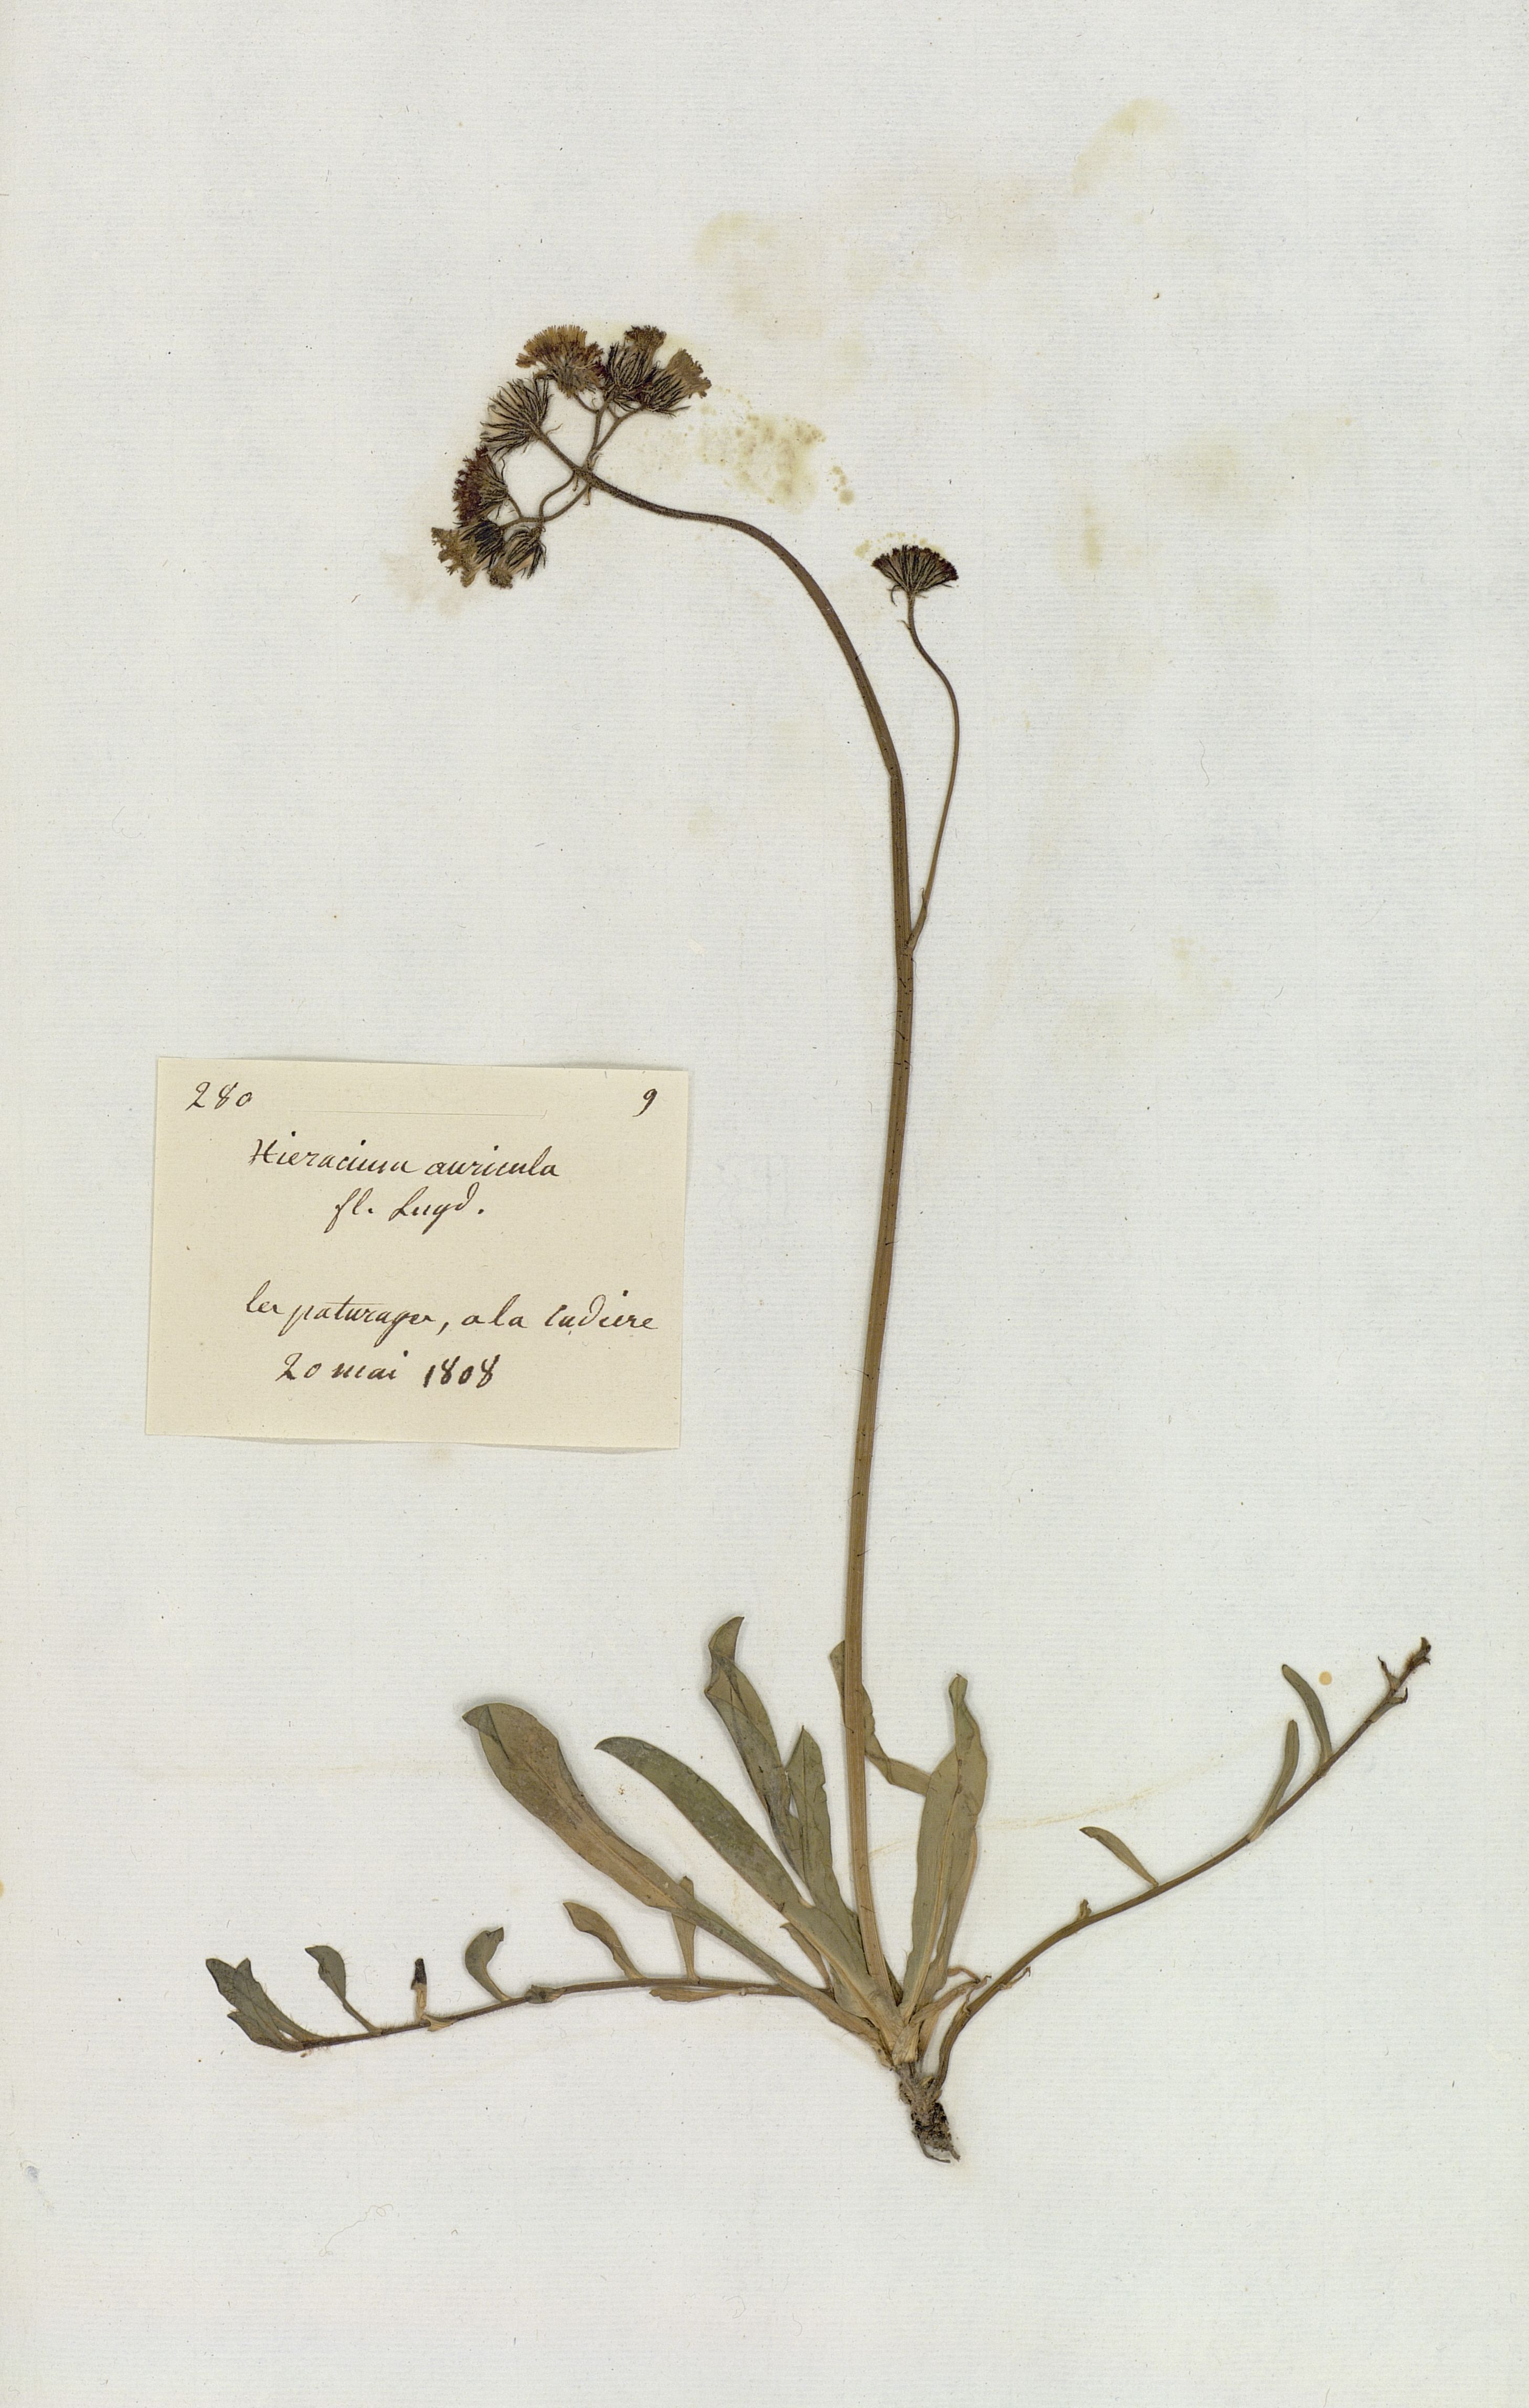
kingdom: Plantae
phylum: Tracheophyta
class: Magnoliopsida
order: Asterales
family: Asteraceae
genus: Hieracium
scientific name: Hieracium auricula
